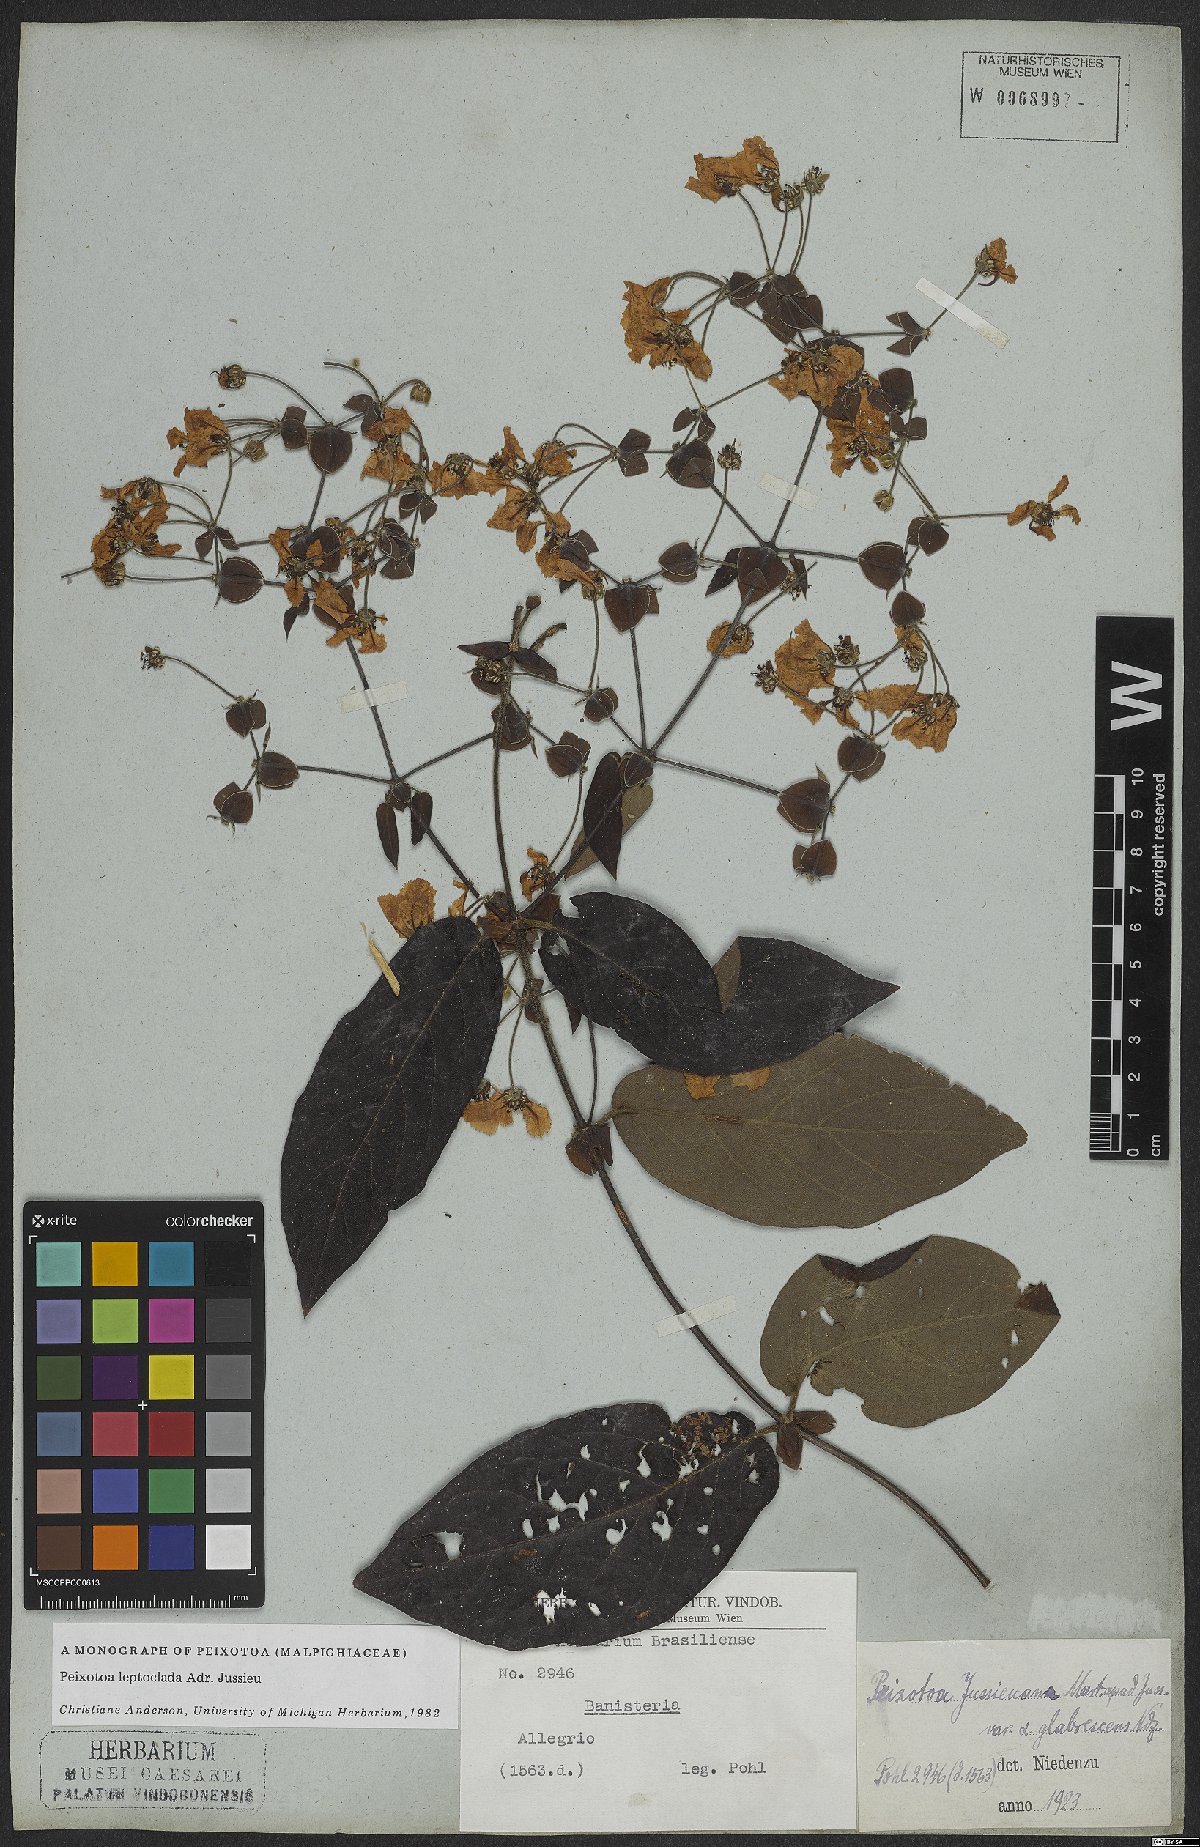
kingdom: Plantae
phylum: Tracheophyta
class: Magnoliopsida
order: Malpighiales
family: Malpighiaceae
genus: Peixotoa
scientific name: Peixotoa leptoclada
